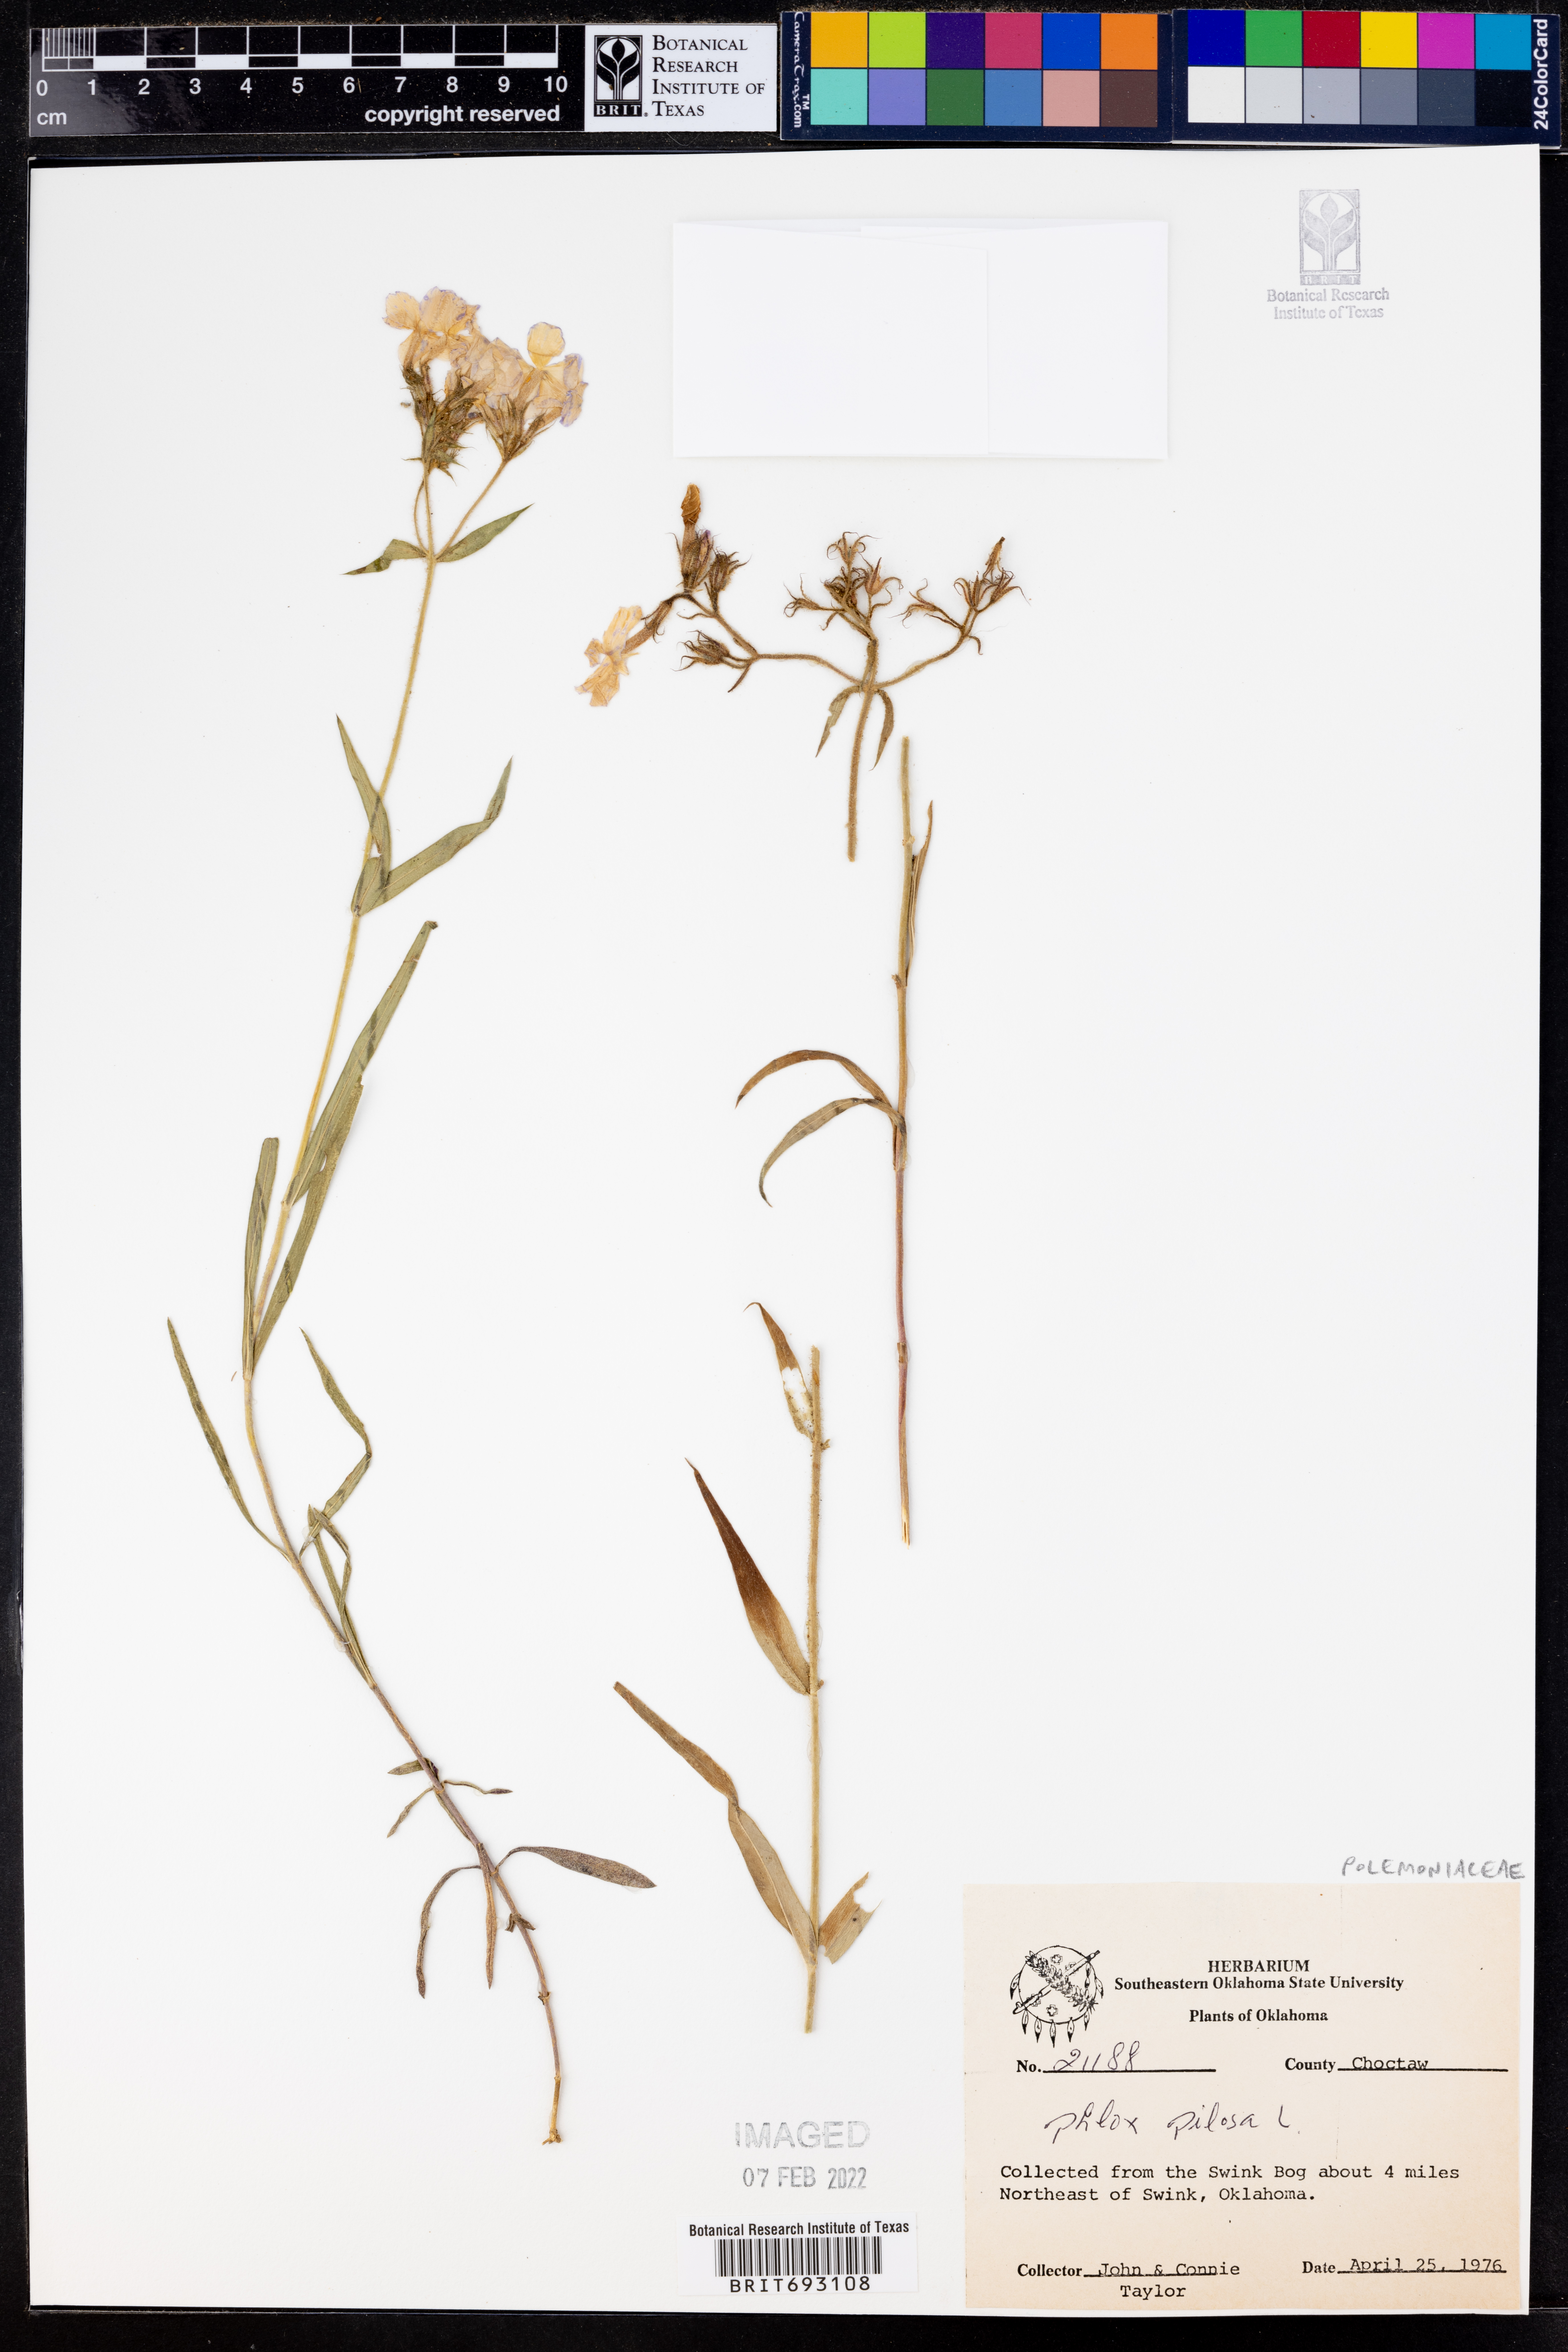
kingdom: Plantae
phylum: Tracheophyta
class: Magnoliopsida
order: Ericales
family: Polemoniaceae
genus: Phlox
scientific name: Phlox pilosa
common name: Prairie phlox
